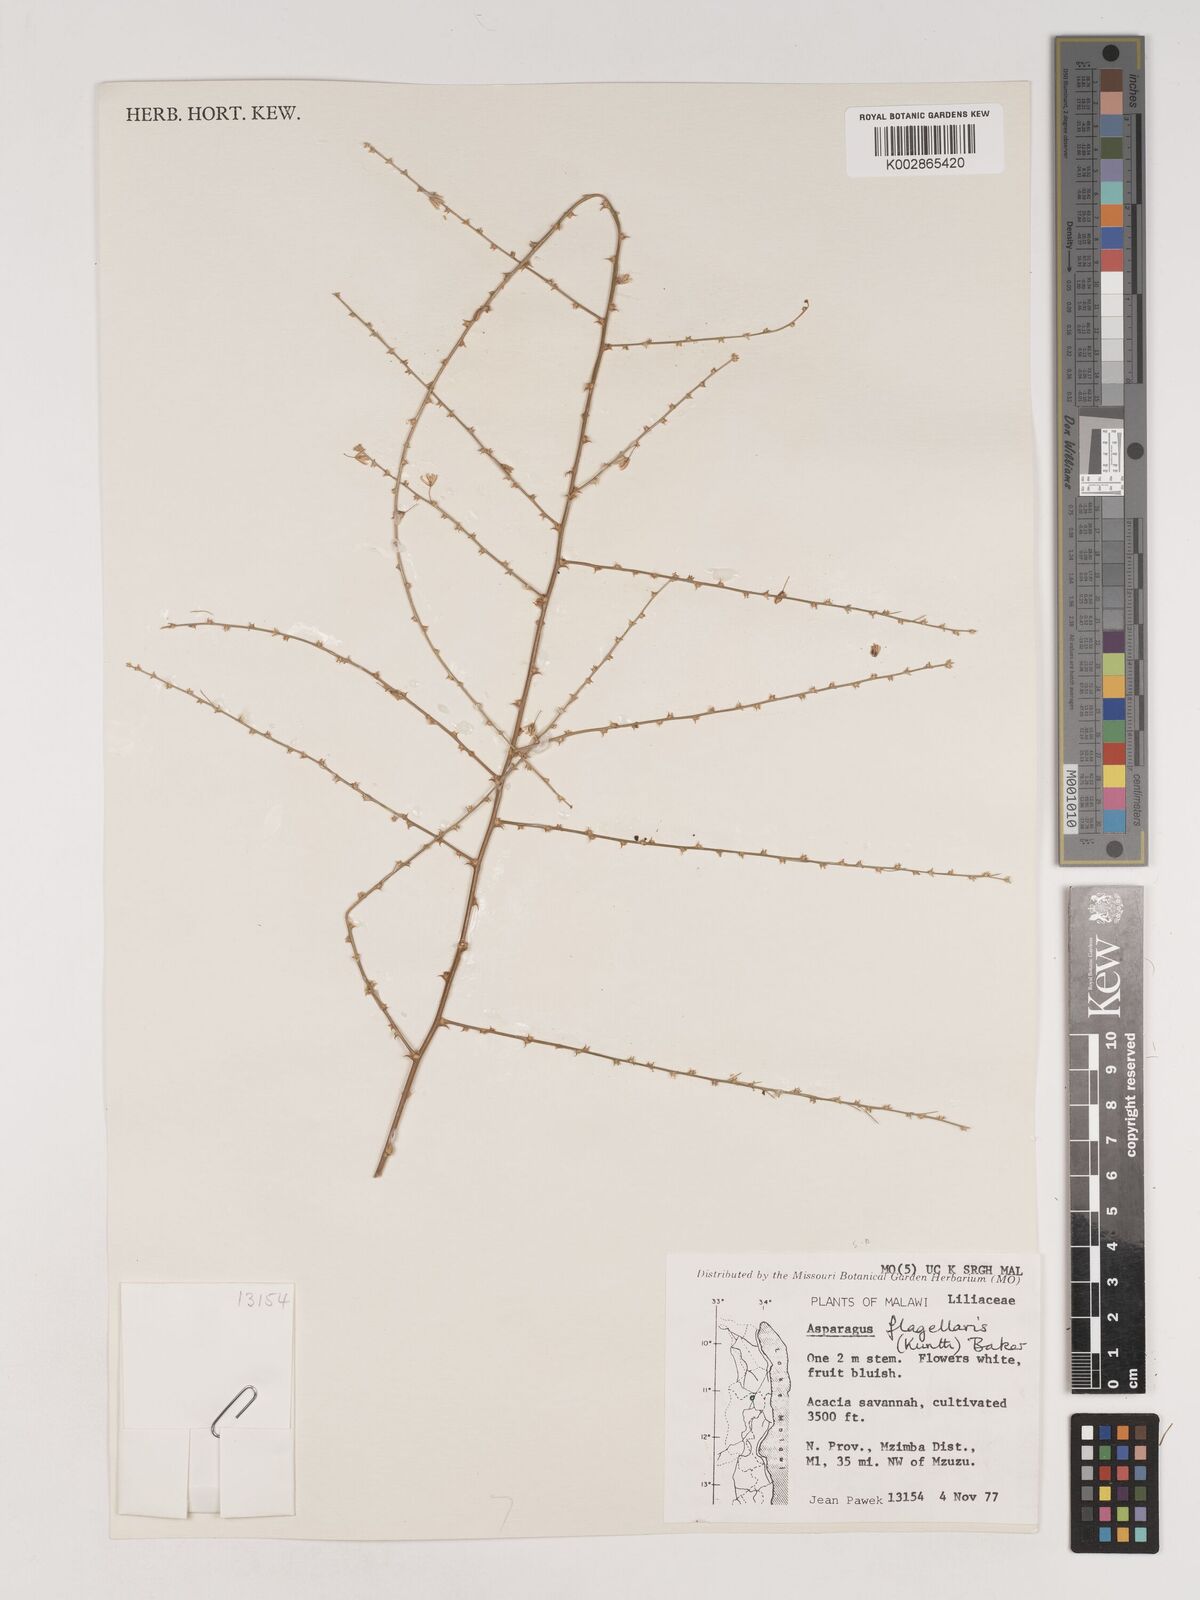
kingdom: Plantae
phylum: Tracheophyta
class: Liliopsida
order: Asparagales
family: Asparagaceae
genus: Asparagus
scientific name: Asparagus flagellaris
